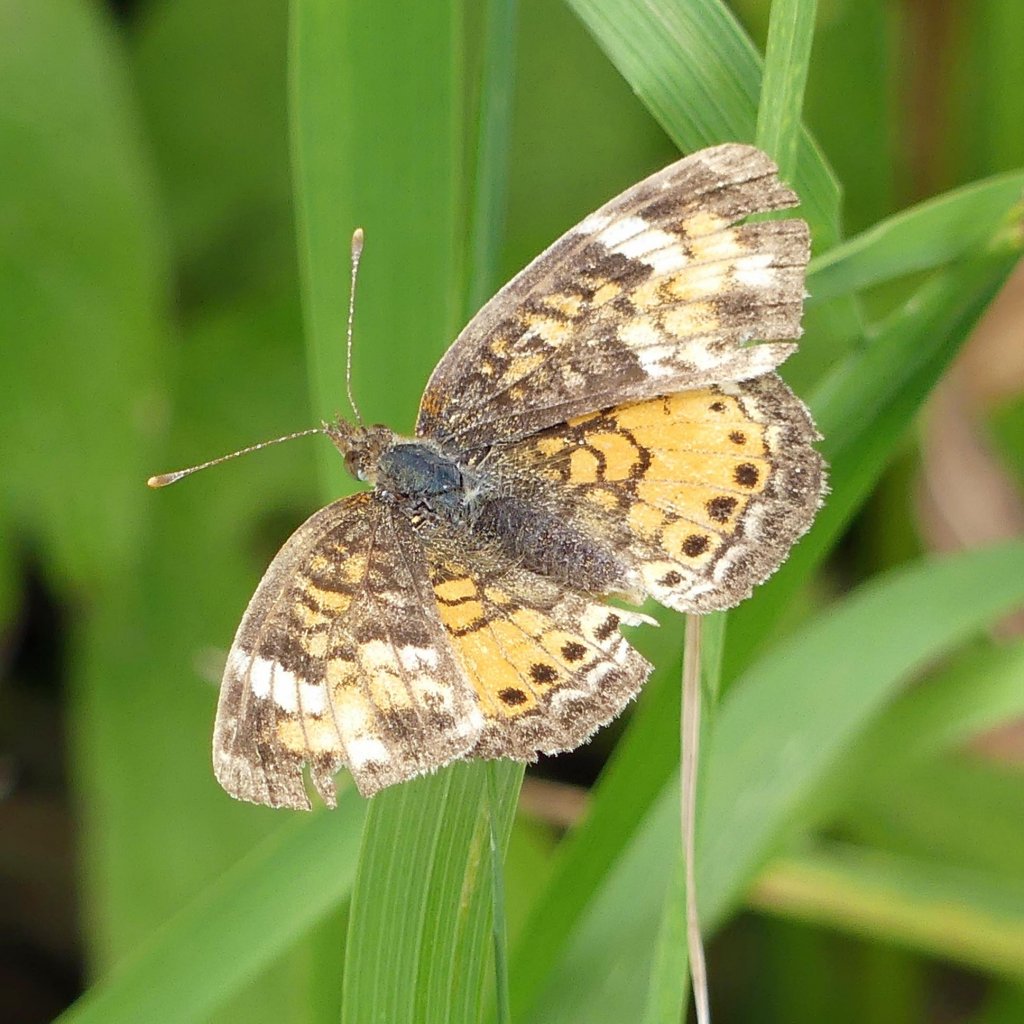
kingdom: Animalia
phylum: Arthropoda
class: Insecta
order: Lepidoptera
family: Nymphalidae
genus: Phyciodes
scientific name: Phyciodes tharos
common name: Northern Crescent
